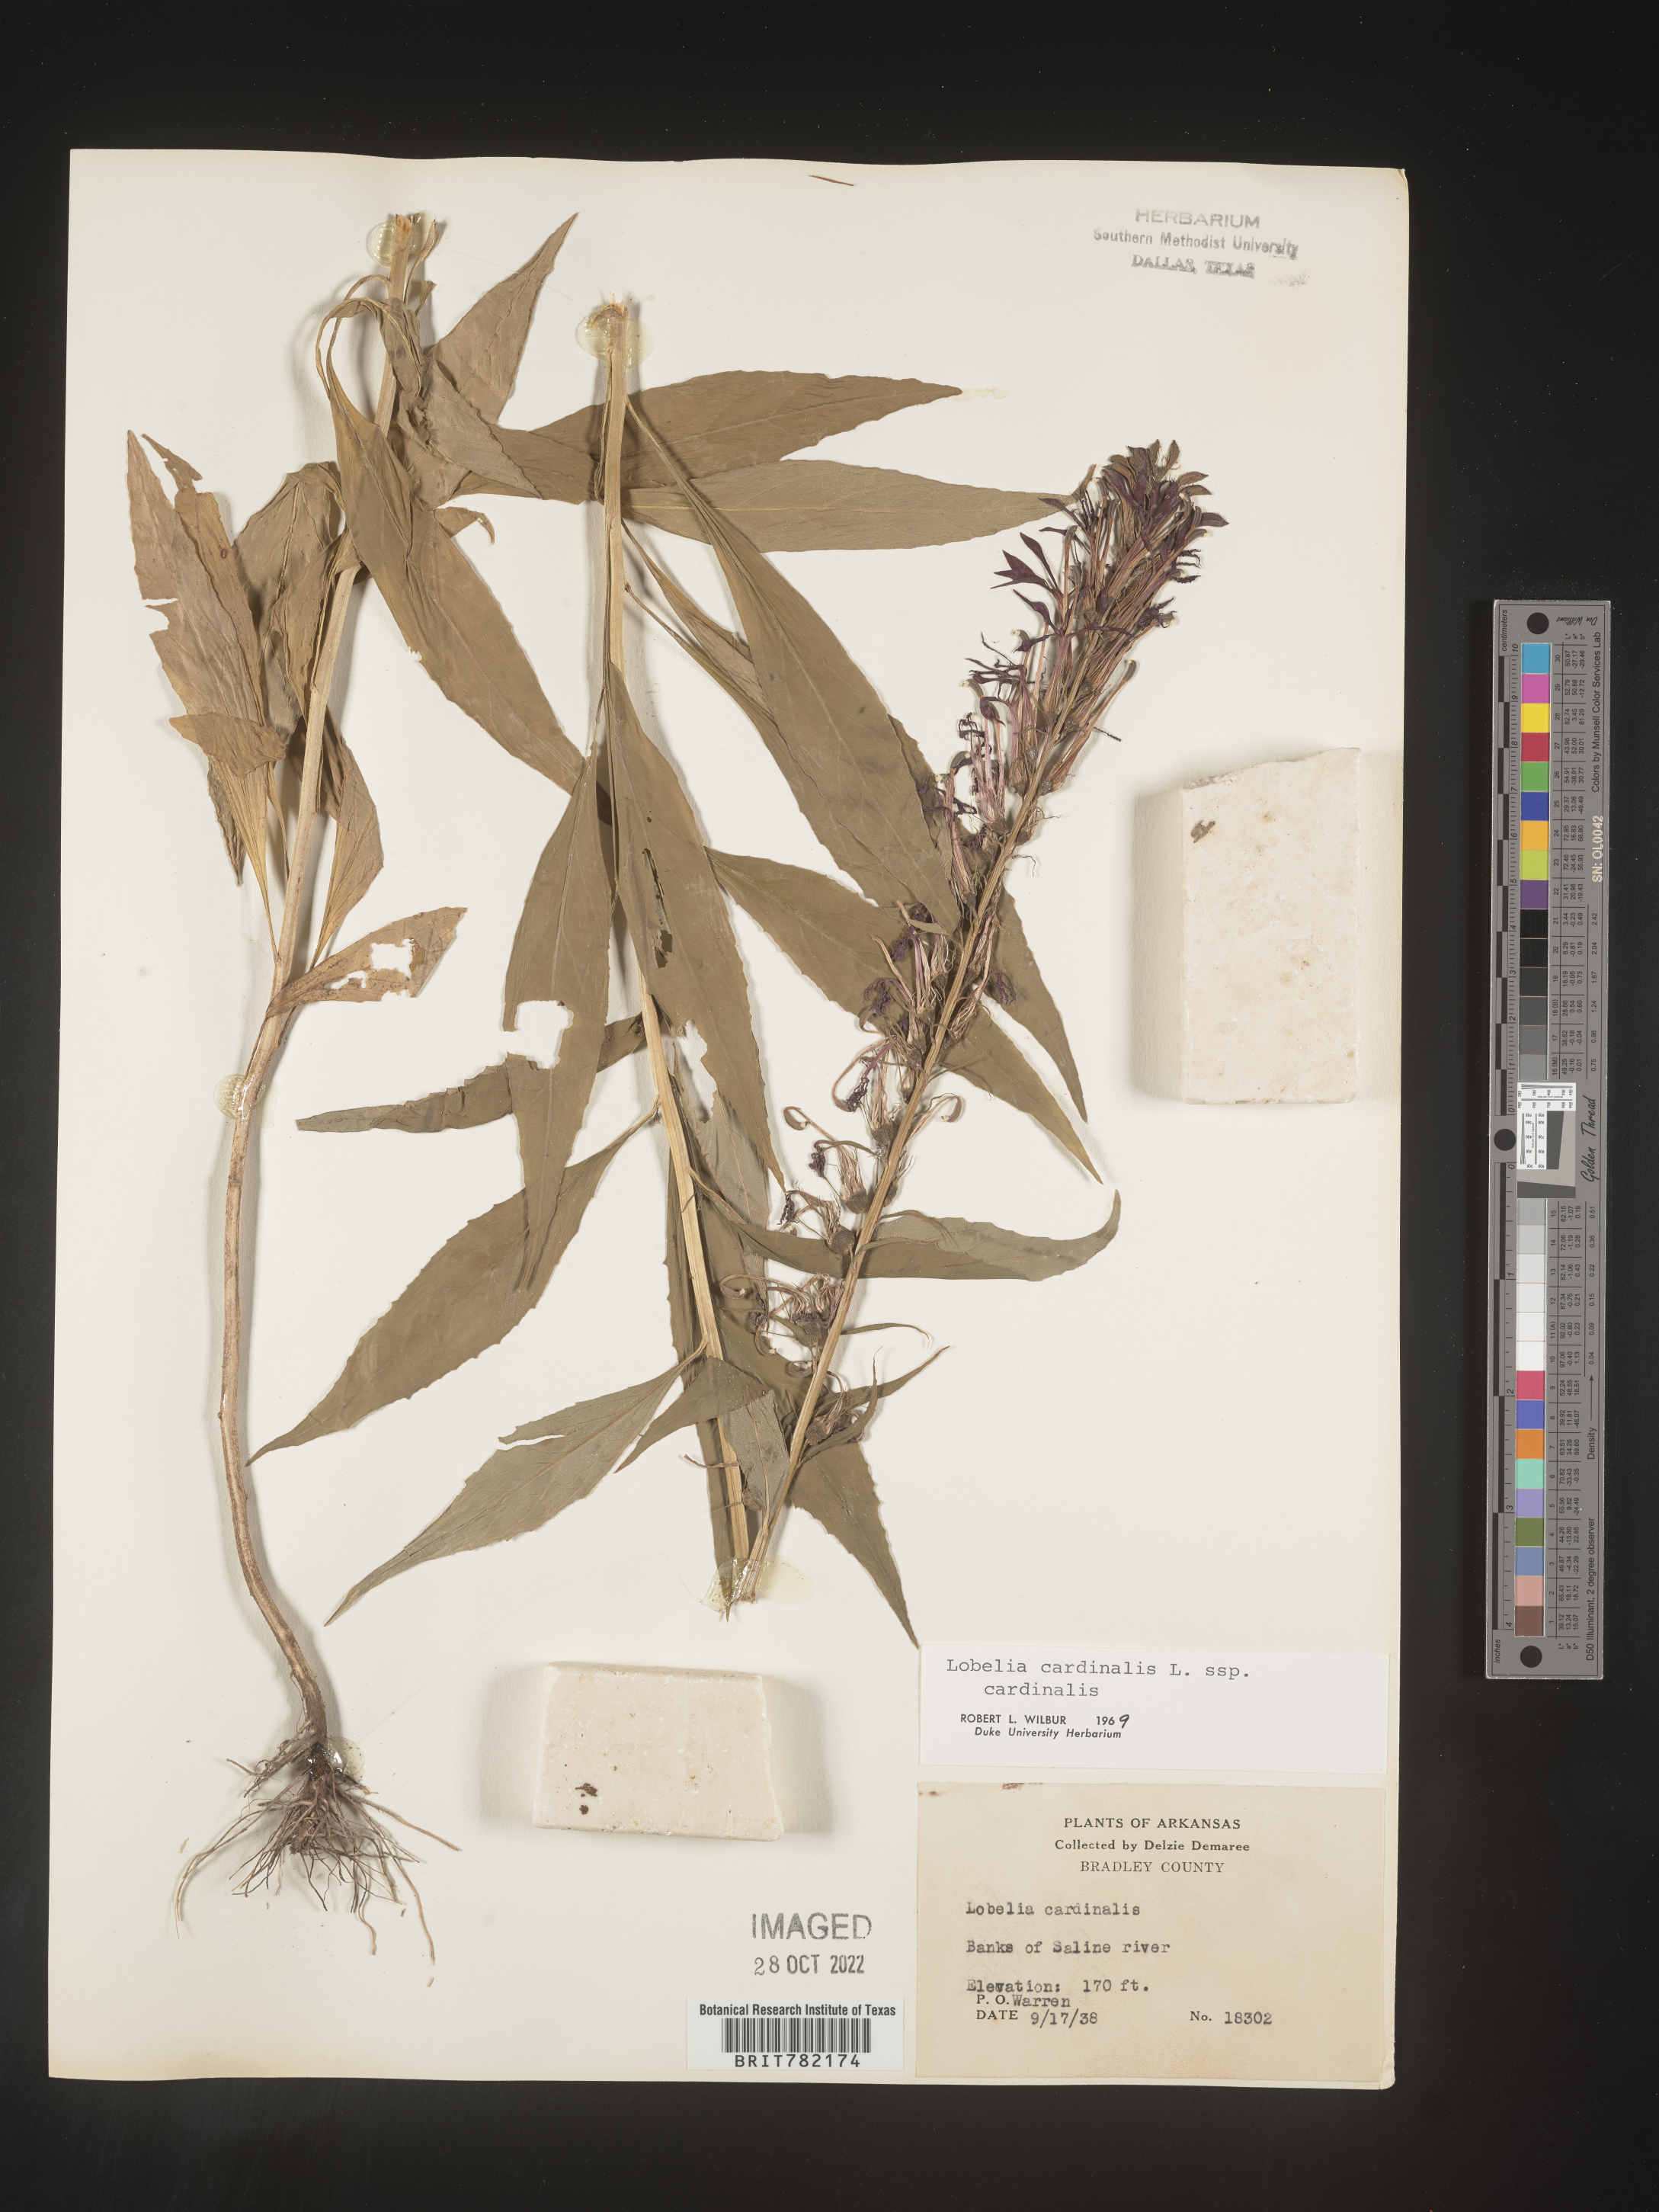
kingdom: Plantae
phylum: Tracheophyta
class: Magnoliopsida
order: Asterales
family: Campanulaceae
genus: Lobelia
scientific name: Lobelia cardinalis
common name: Cardinal flower
